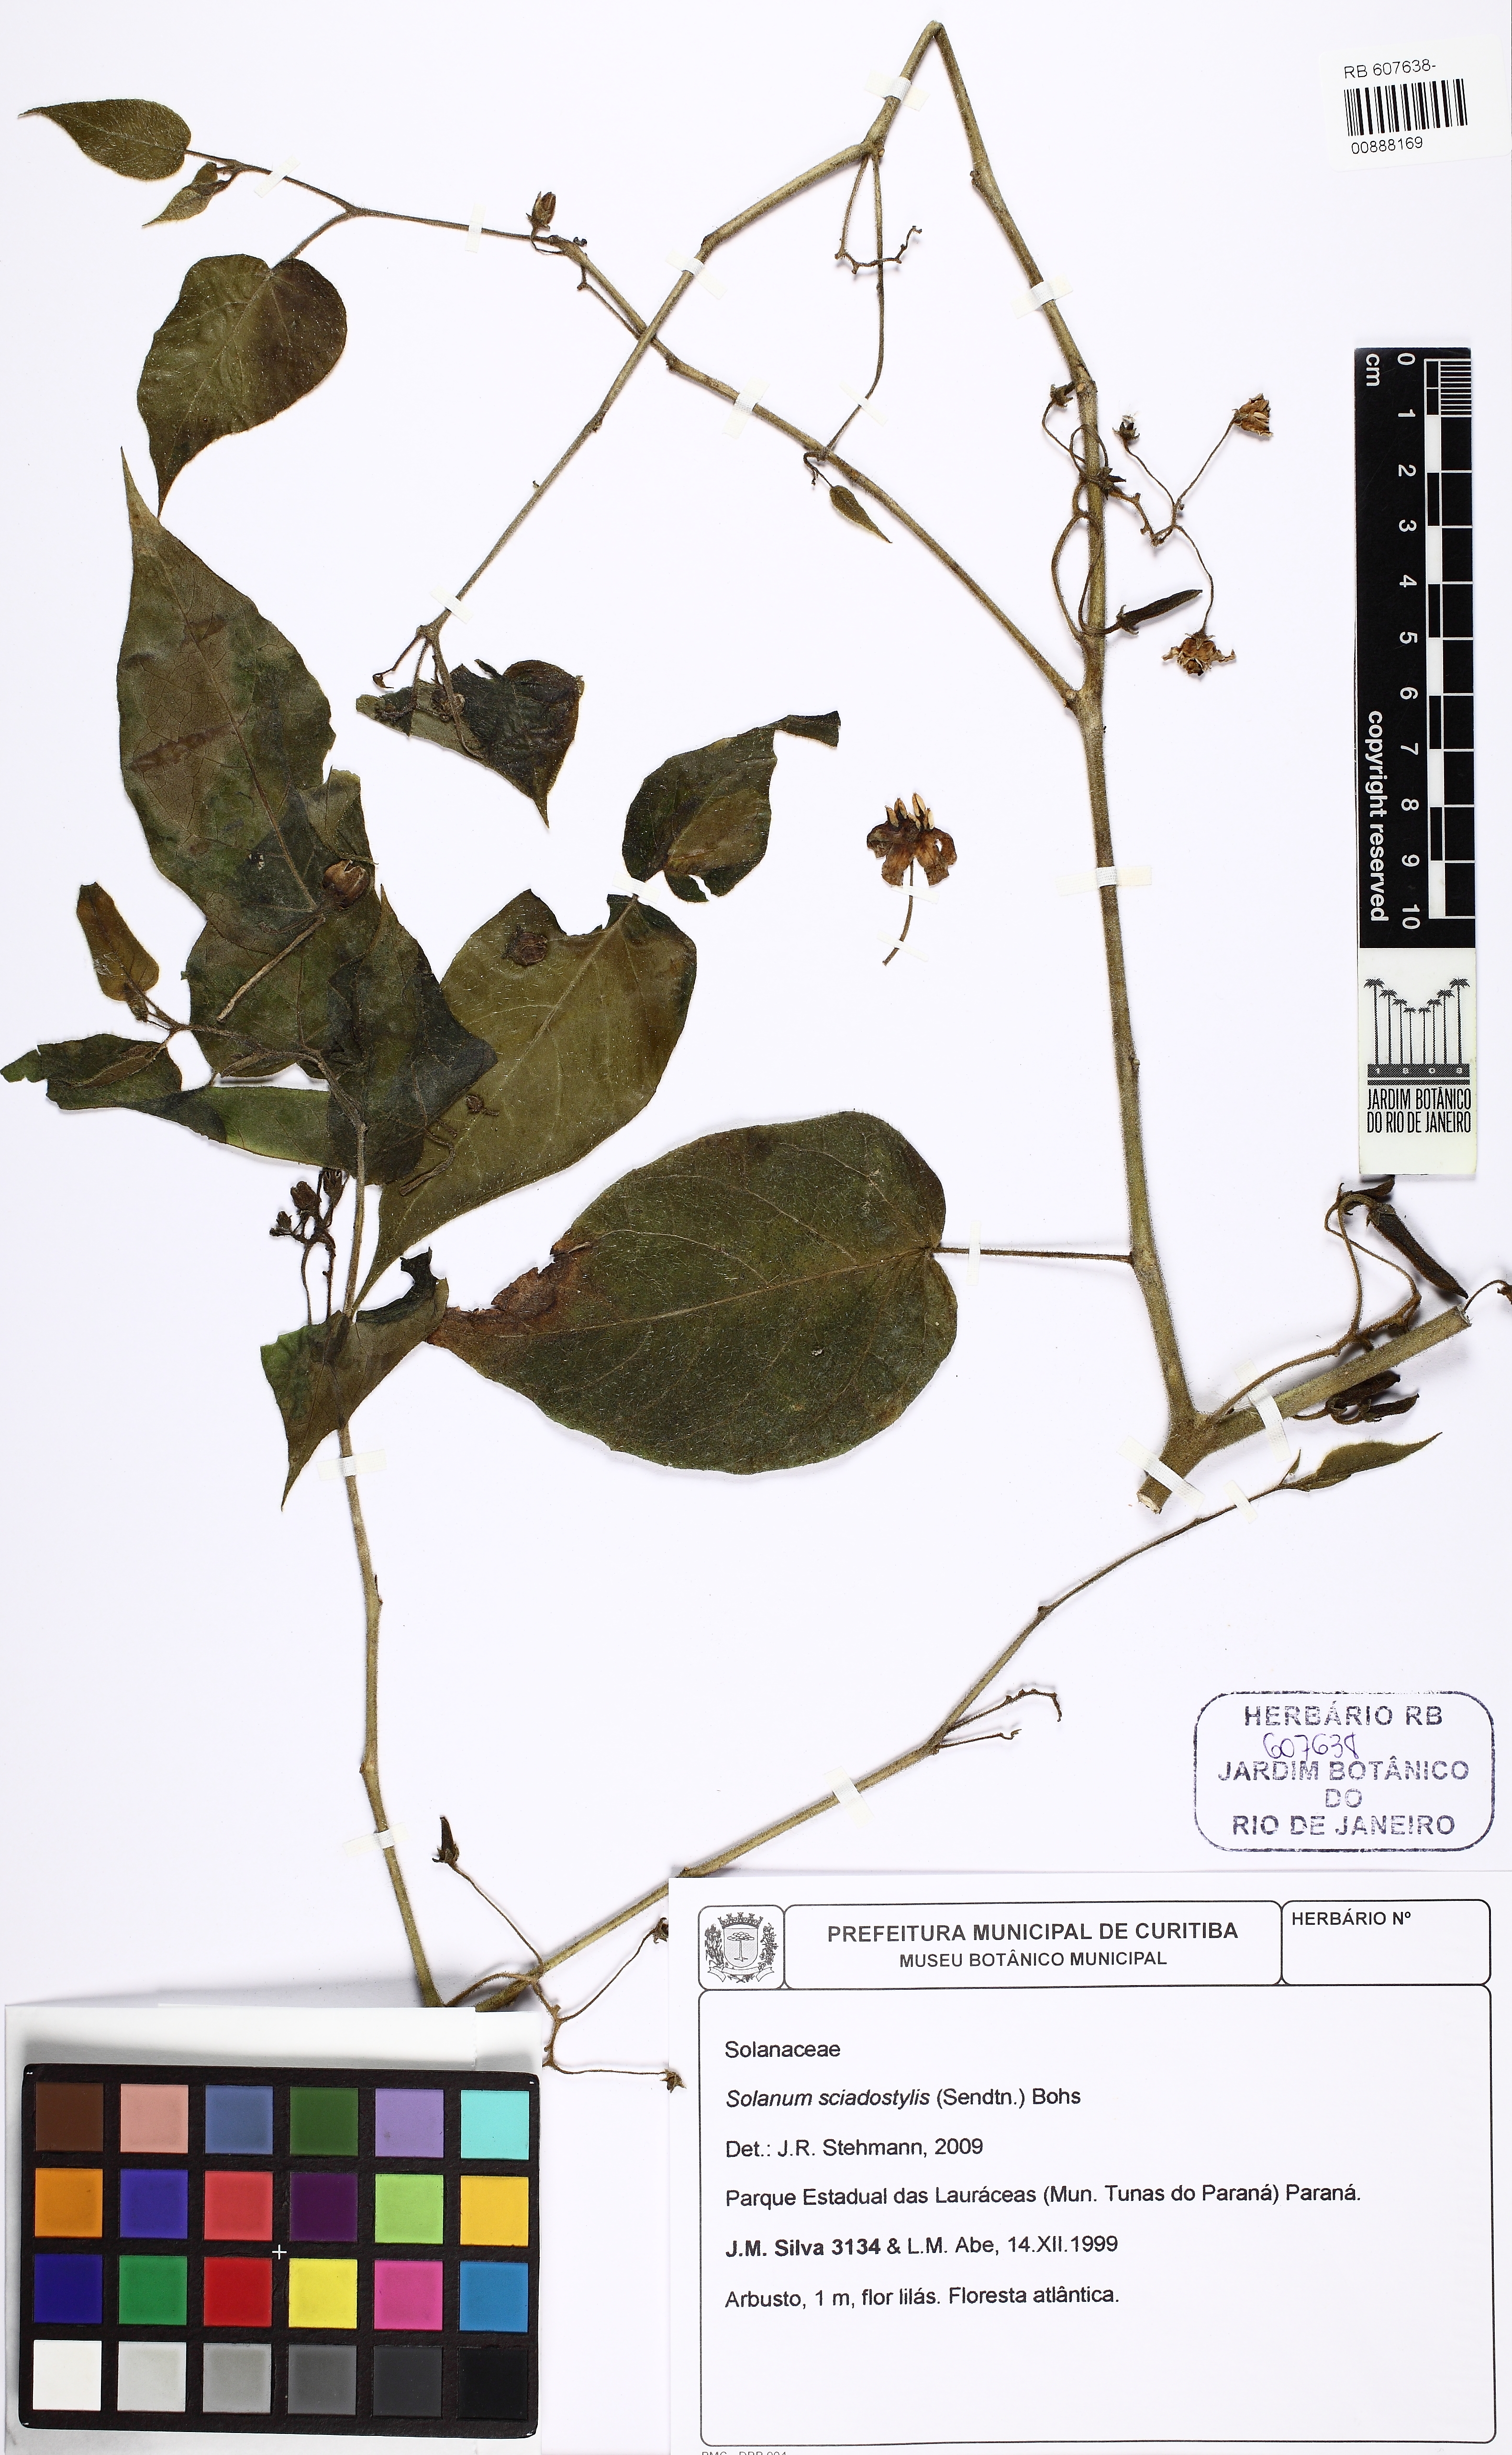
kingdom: Plantae
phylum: Tracheophyta
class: Magnoliopsida
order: Solanales
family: Solanaceae
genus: Solanum
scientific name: Solanum sciadostylis
